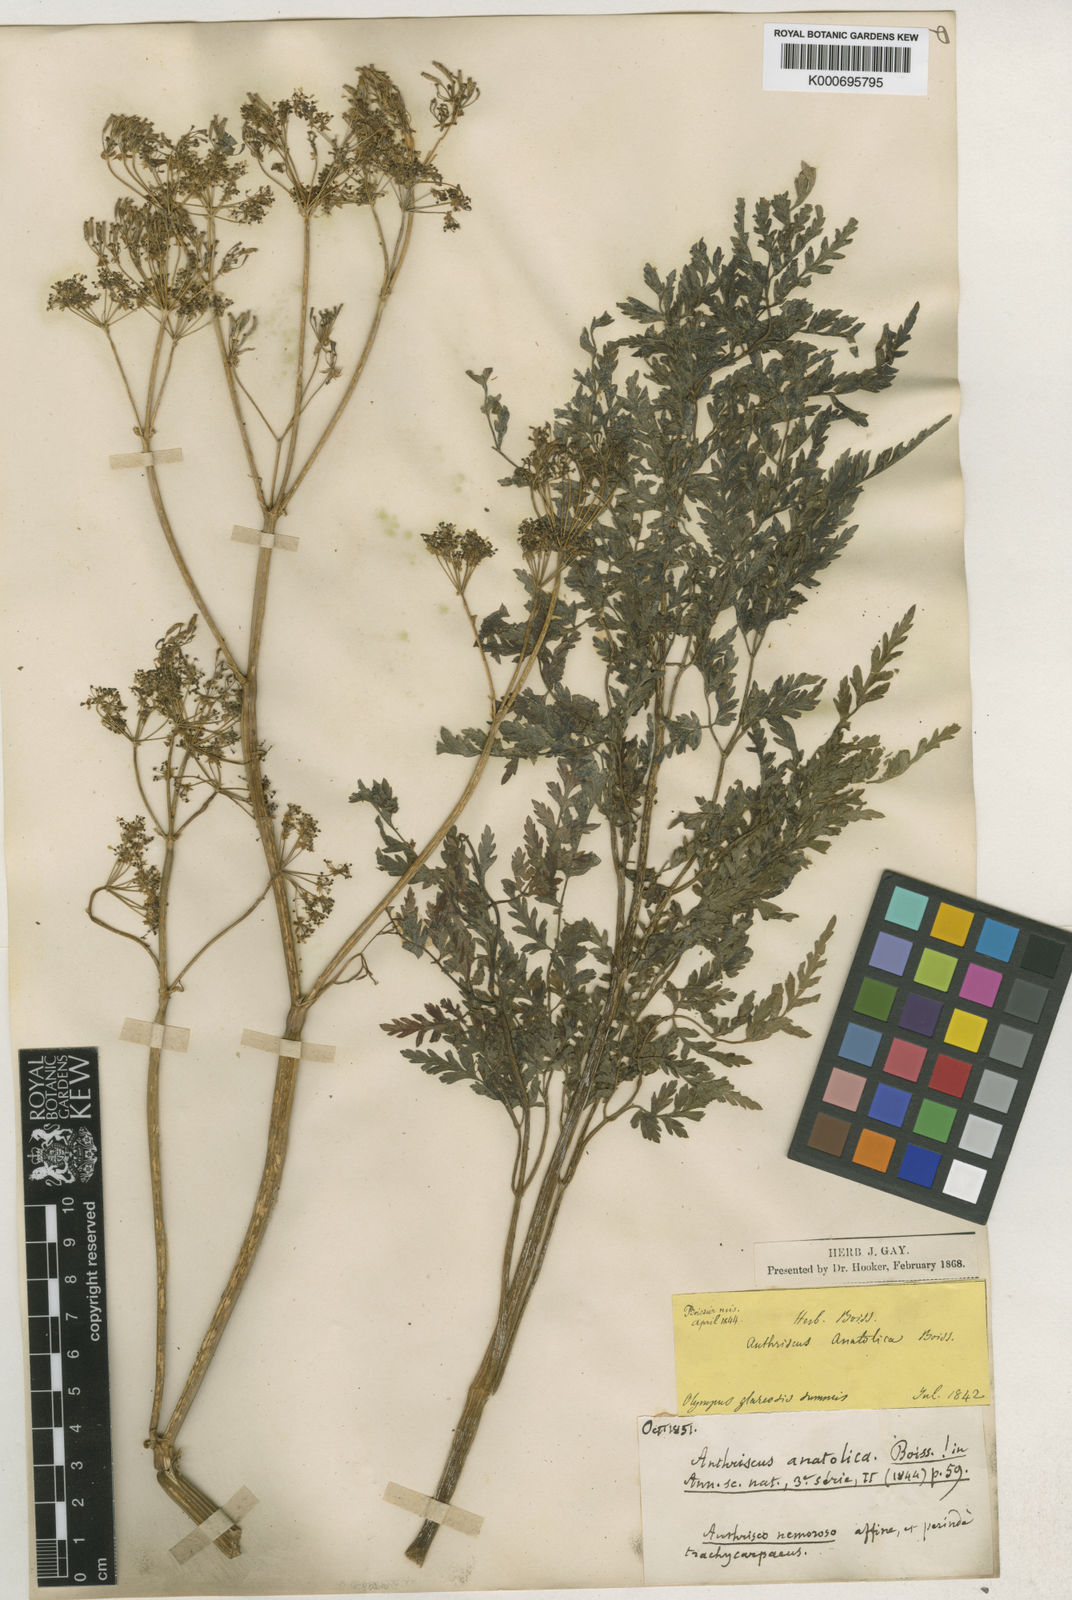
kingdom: Plantae
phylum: Tracheophyta
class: Magnoliopsida
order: Apiales
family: Apiaceae
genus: Anthriscus
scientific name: Anthriscus sylvestris
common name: Cow parsley
